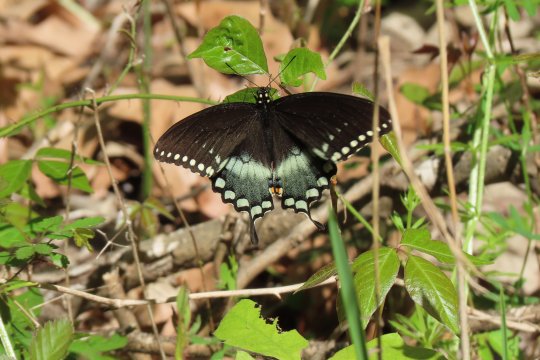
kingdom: Animalia
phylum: Arthropoda
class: Insecta
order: Lepidoptera
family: Papilionidae
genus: Pterourus
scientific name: Pterourus troilus
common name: Spicebush Swallowtail
